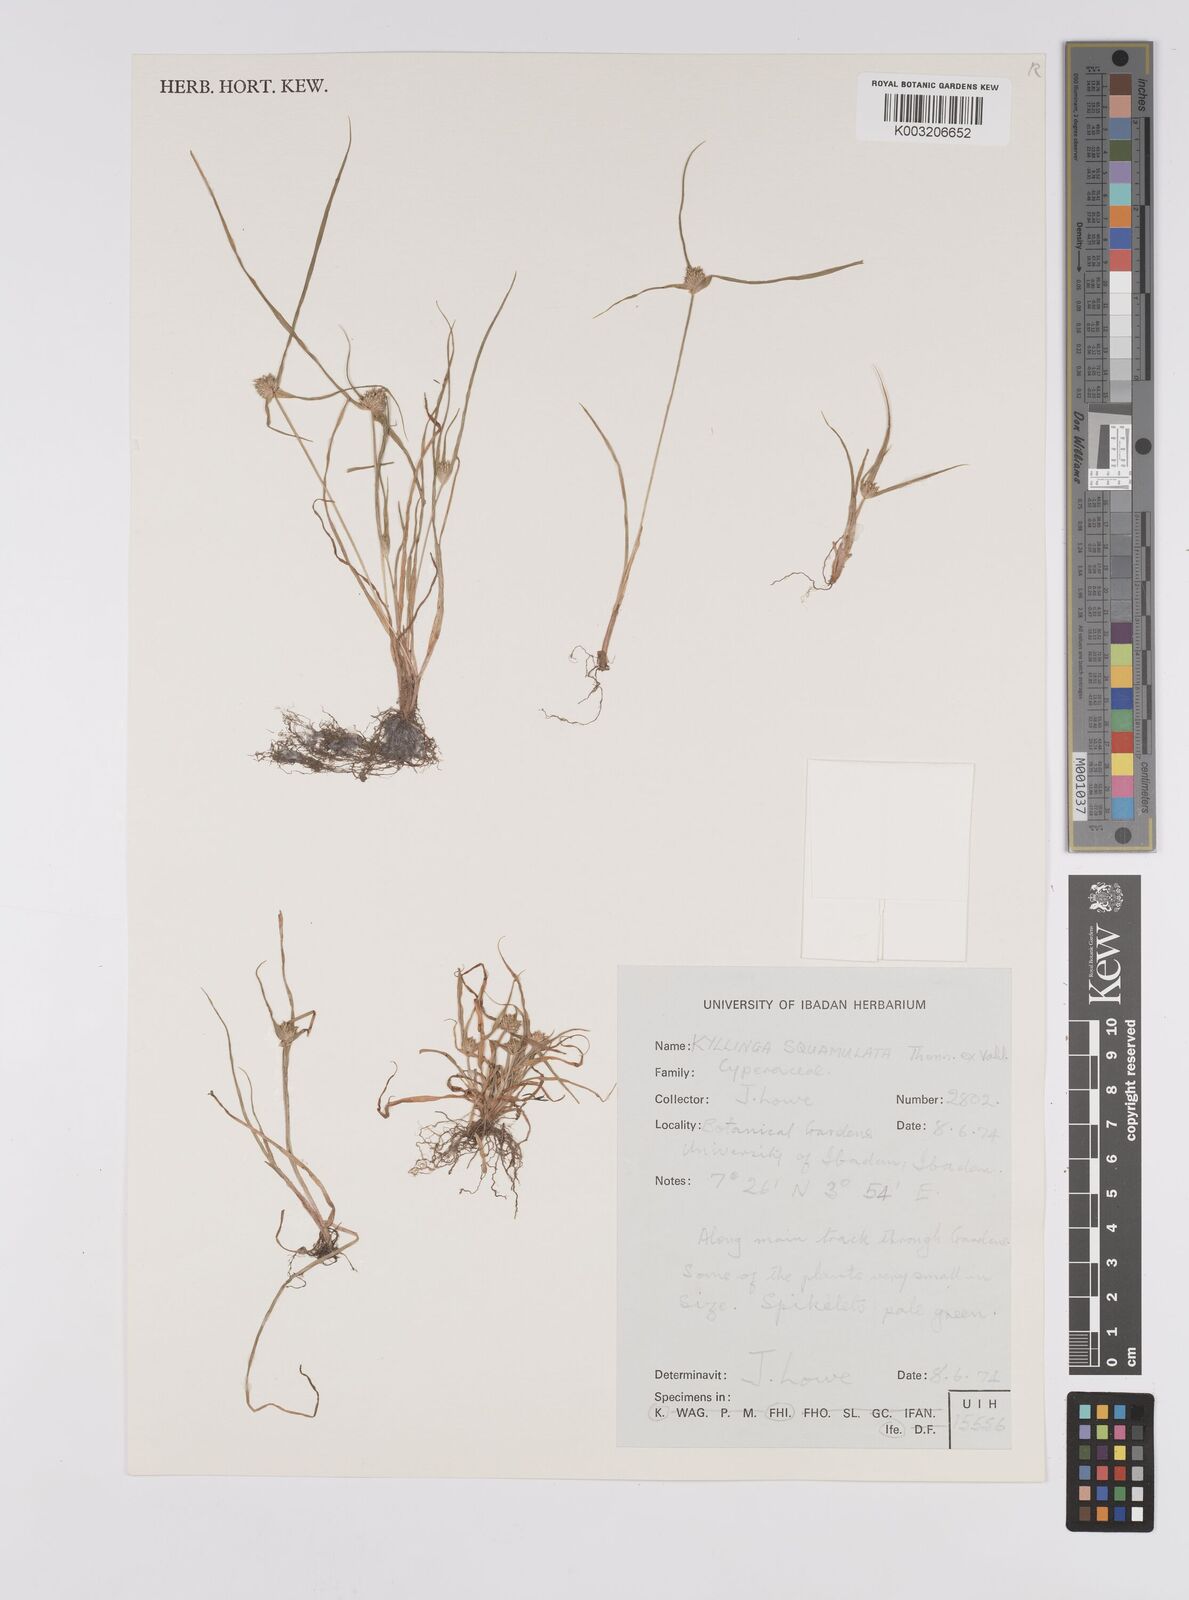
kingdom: Plantae
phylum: Tracheophyta
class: Liliopsida
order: Poales
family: Cyperaceae
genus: Cyperus
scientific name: Cyperus distans
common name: Slender cyperus
